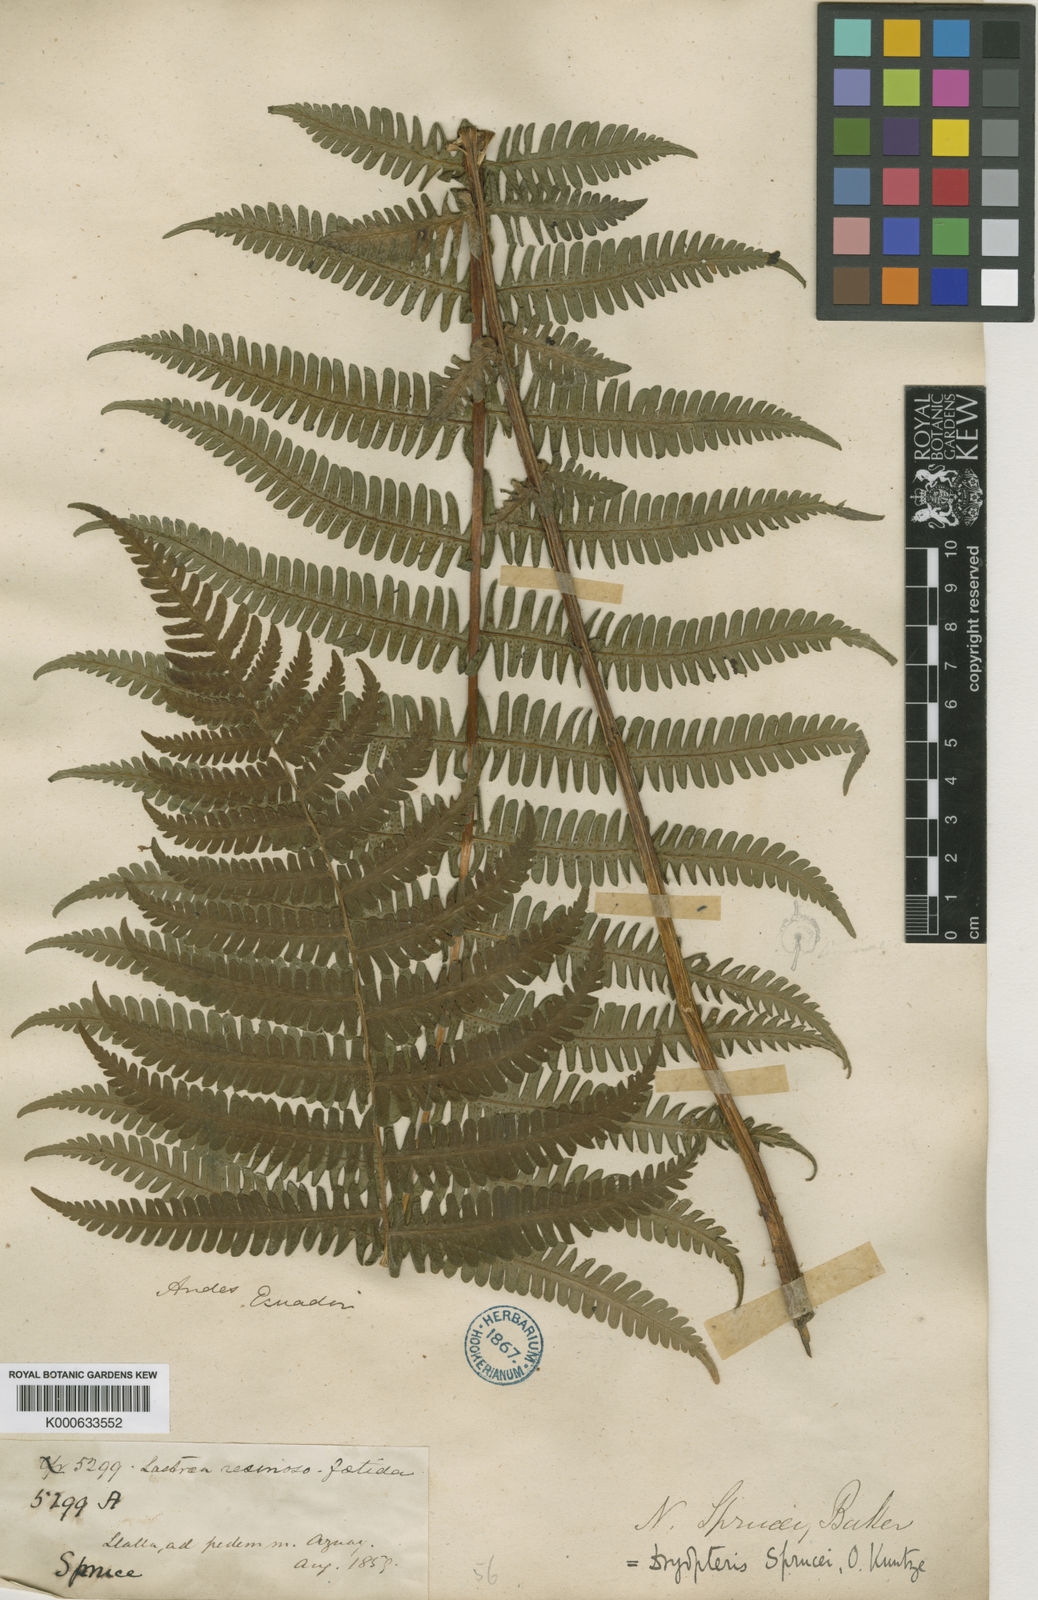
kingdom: Plantae
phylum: Tracheophyta
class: Polypodiopsida
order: Polypodiales
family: Thelypteridaceae
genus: Amauropelta
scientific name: Amauropelta pachyrhachis
